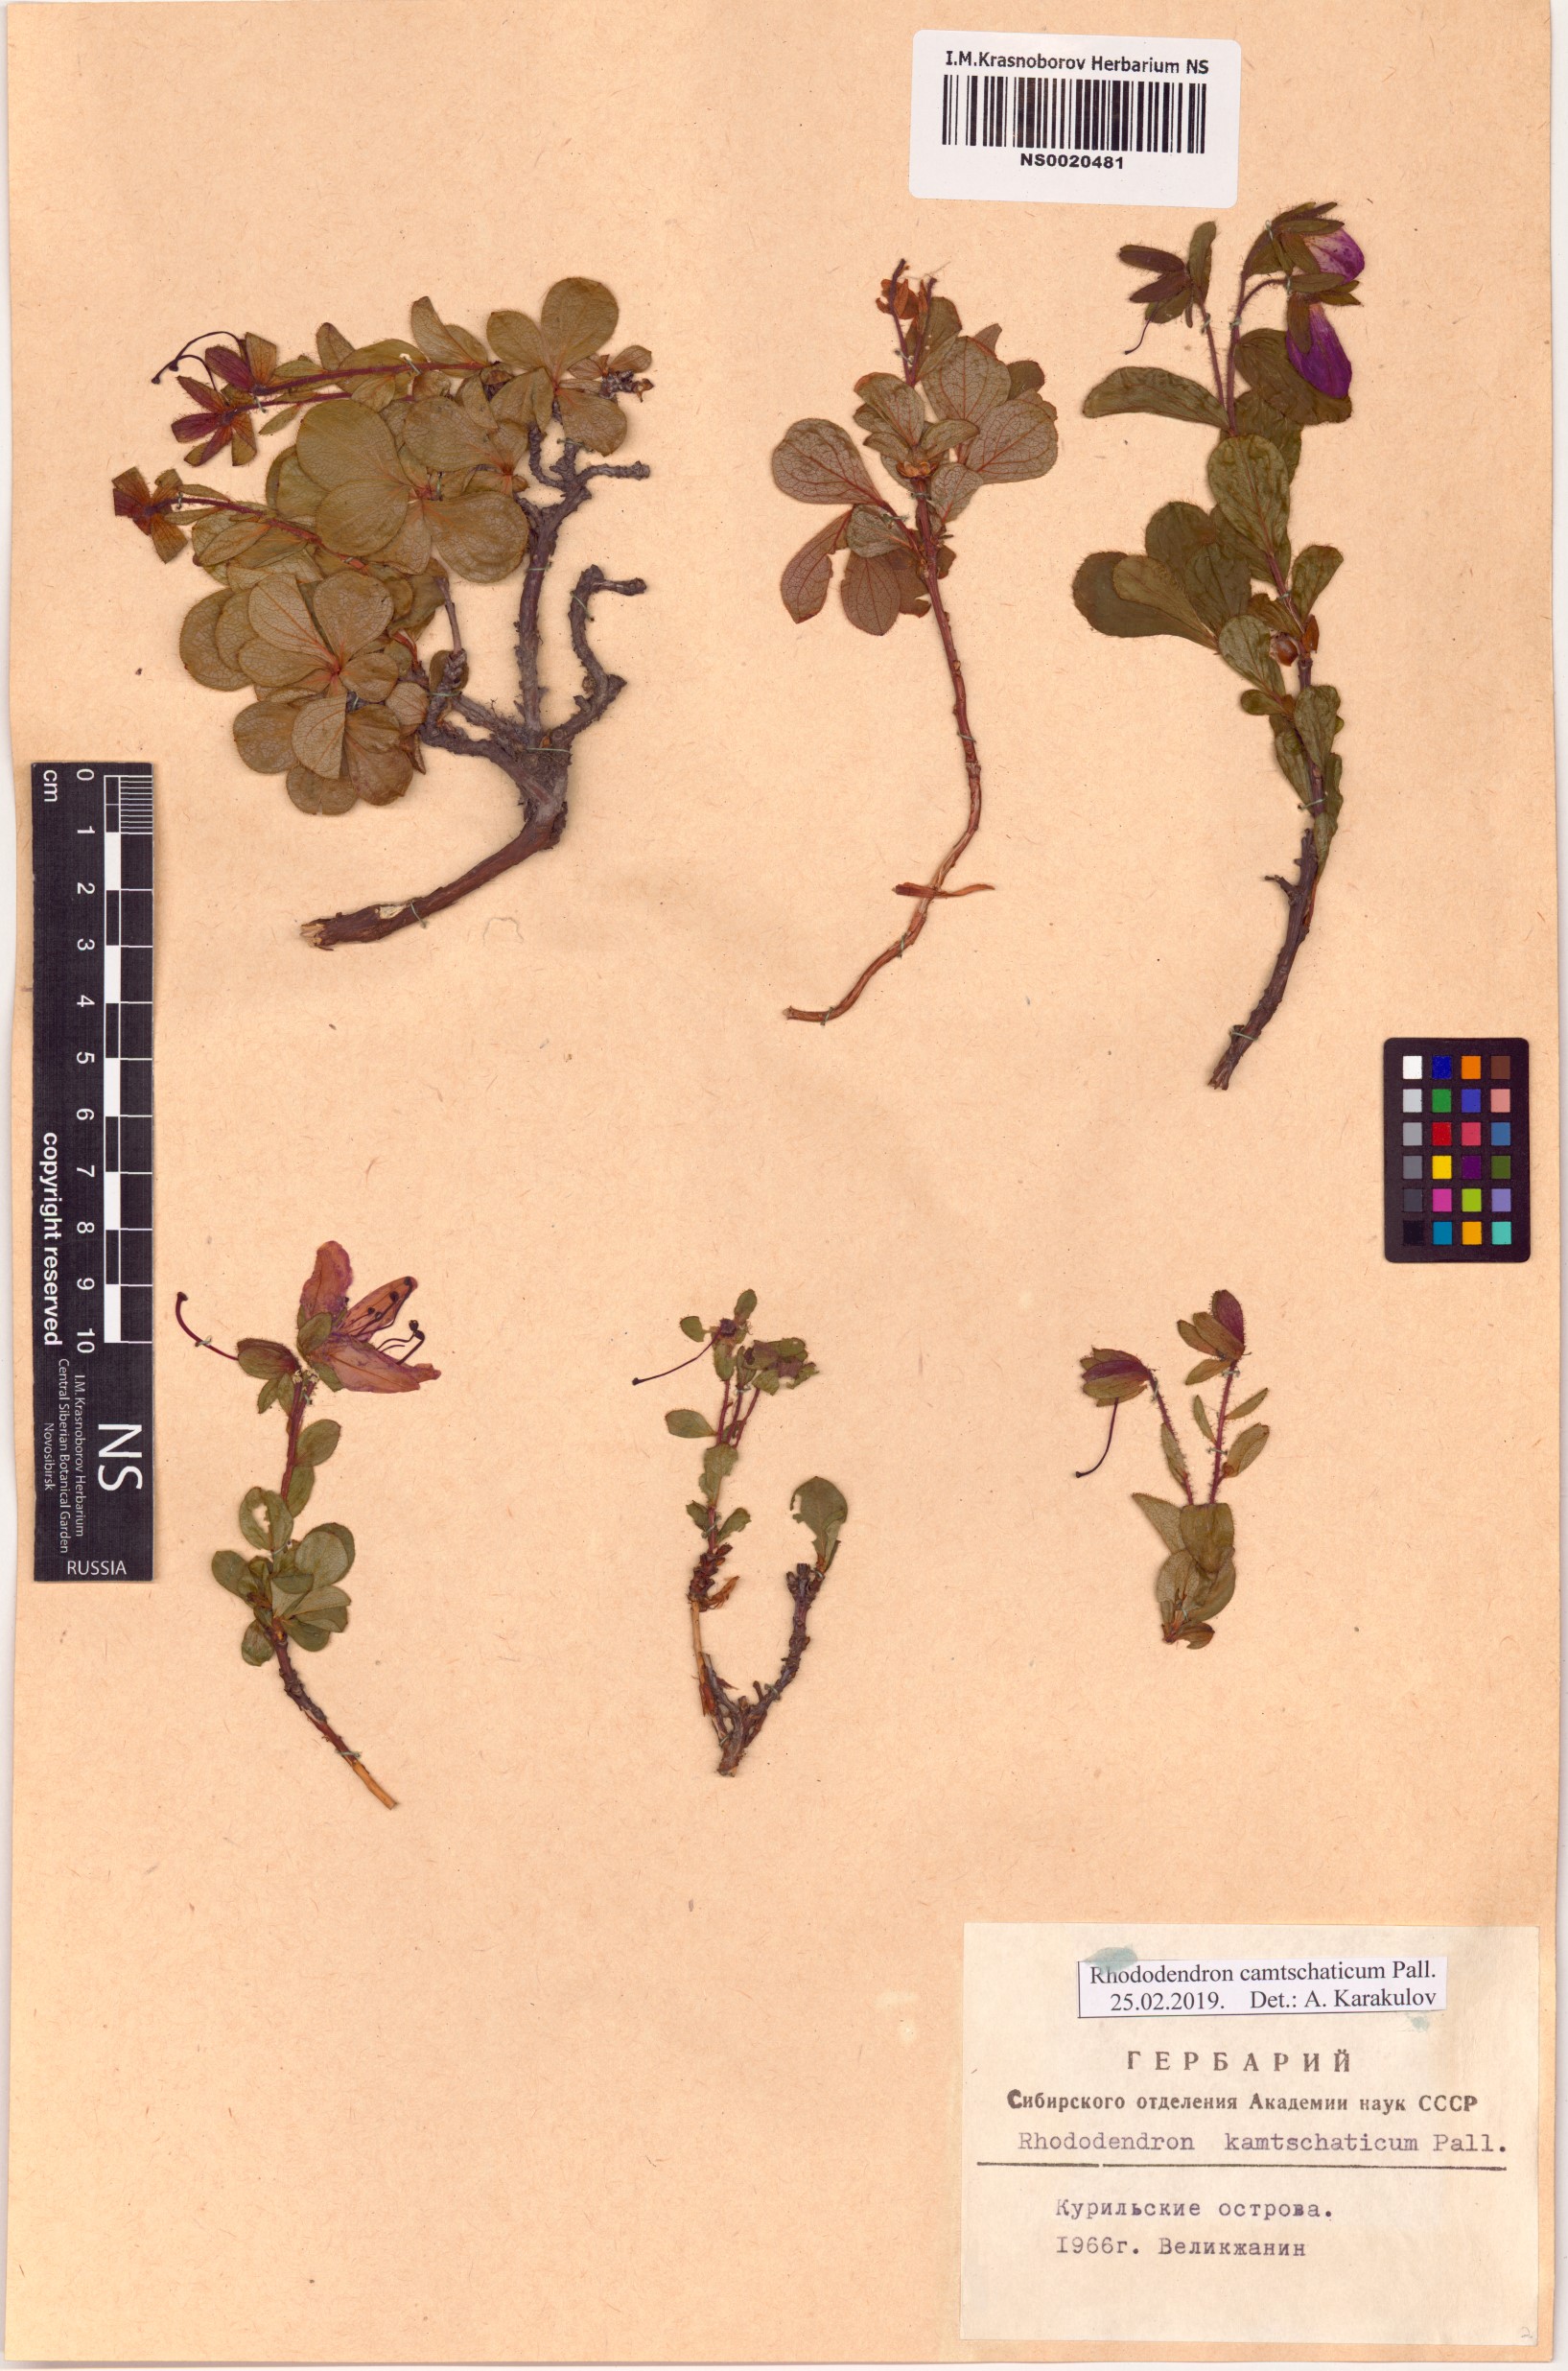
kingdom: Plantae
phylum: Tracheophyta
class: Magnoliopsida
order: Ericales
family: Ericaceae
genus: Rhododendron
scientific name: Rhododendron camtschaticum
